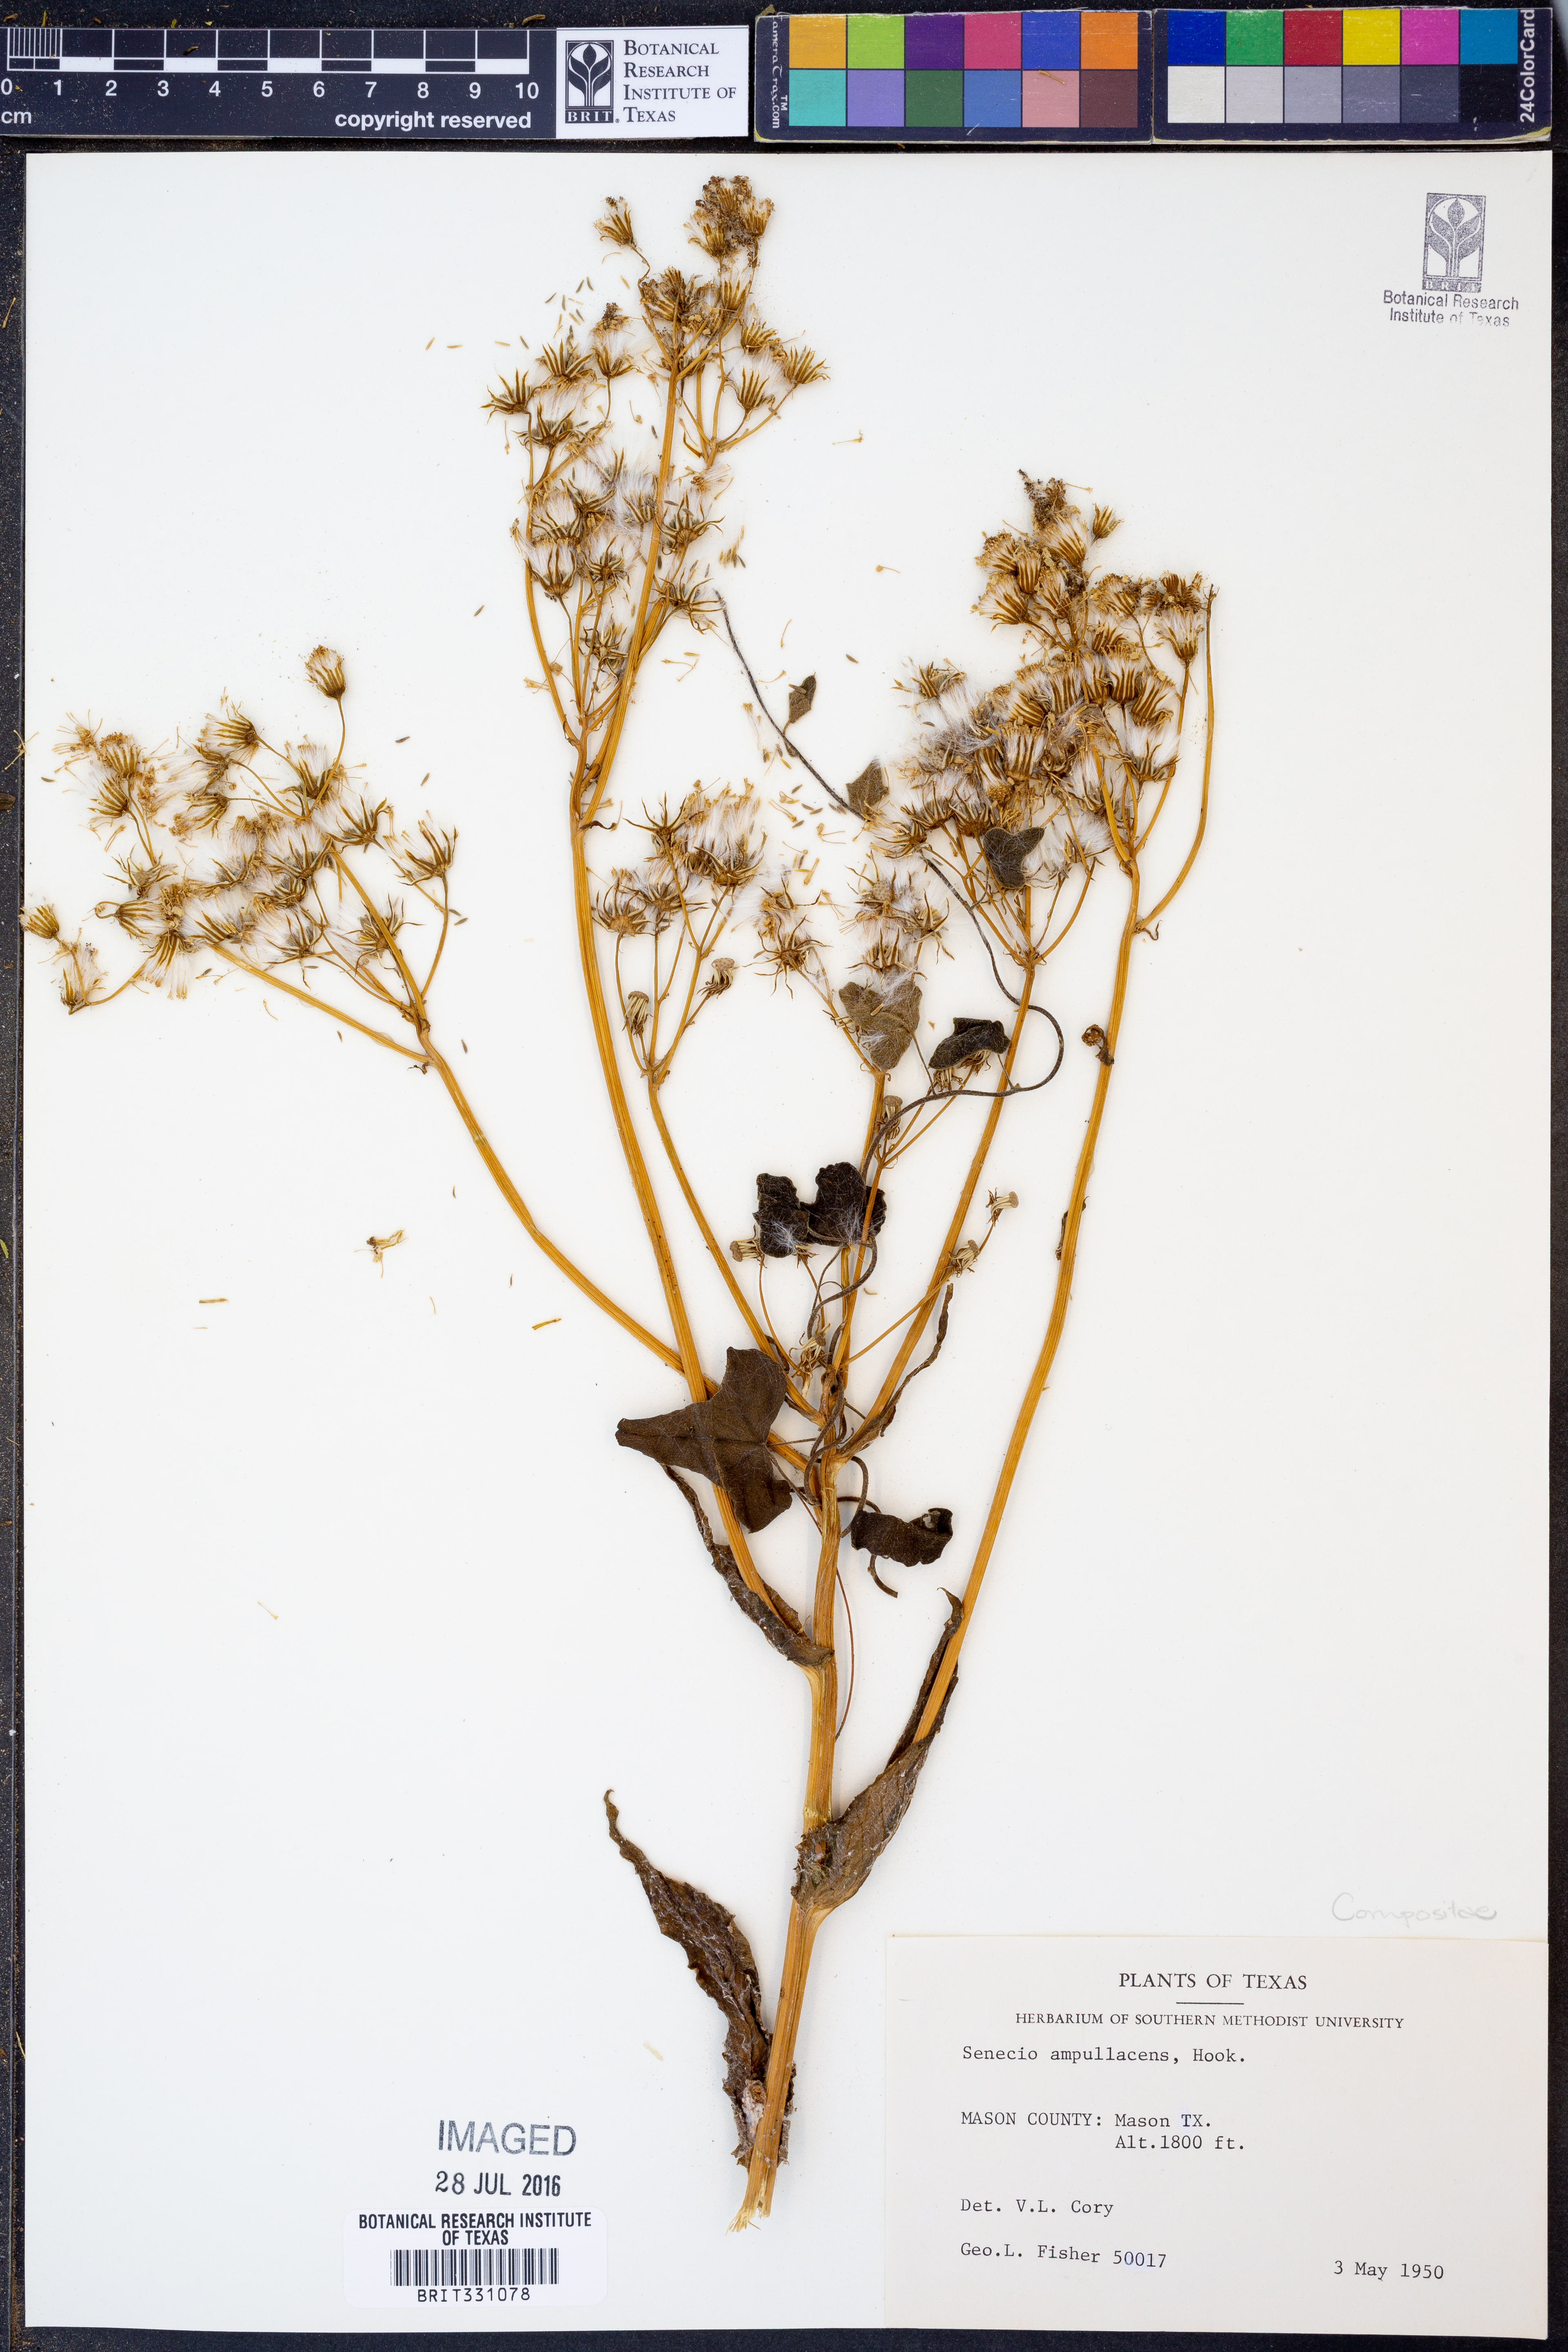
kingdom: Plantae
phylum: Tracheophyta
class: Magnoliopsida
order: Asterales
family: Asteraceae
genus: Senecio
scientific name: Senecio ampullaceus
